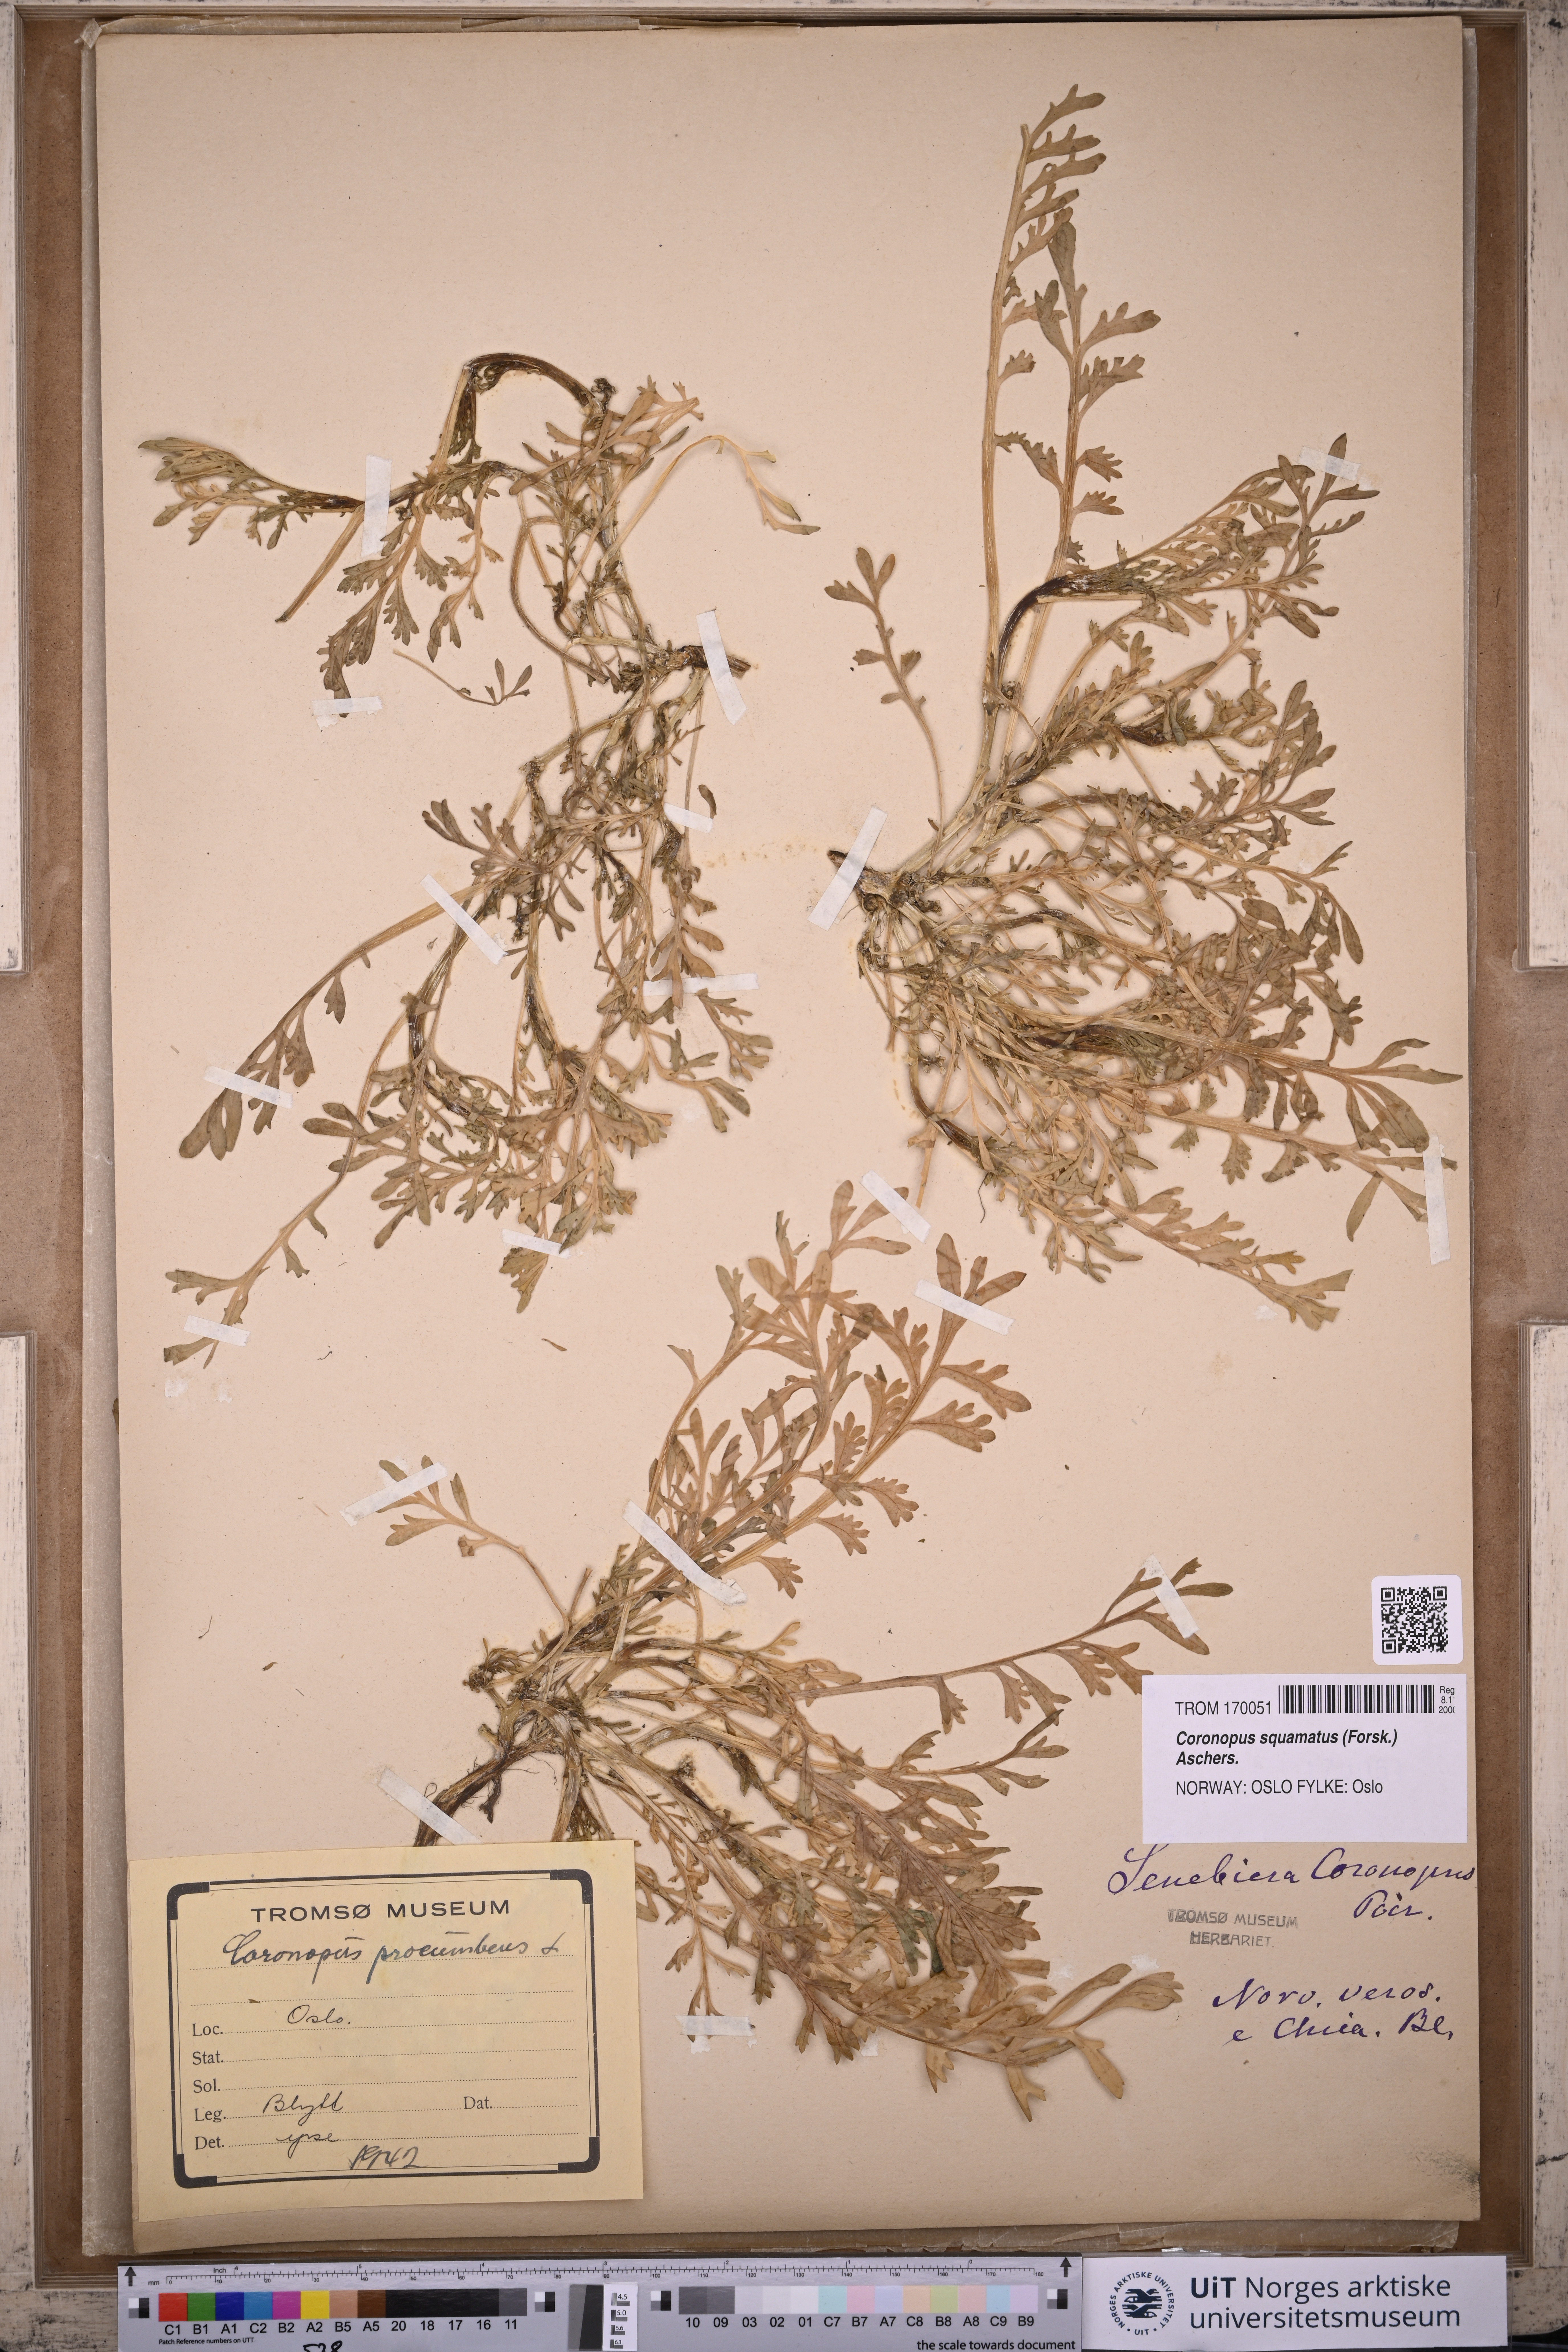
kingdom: Plantae
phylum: Tracheophyta
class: Magnoliopsida
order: Brassicales
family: Brassicaceae
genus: Lepidium
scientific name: Lepidium coronopus
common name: Greater swinecress
